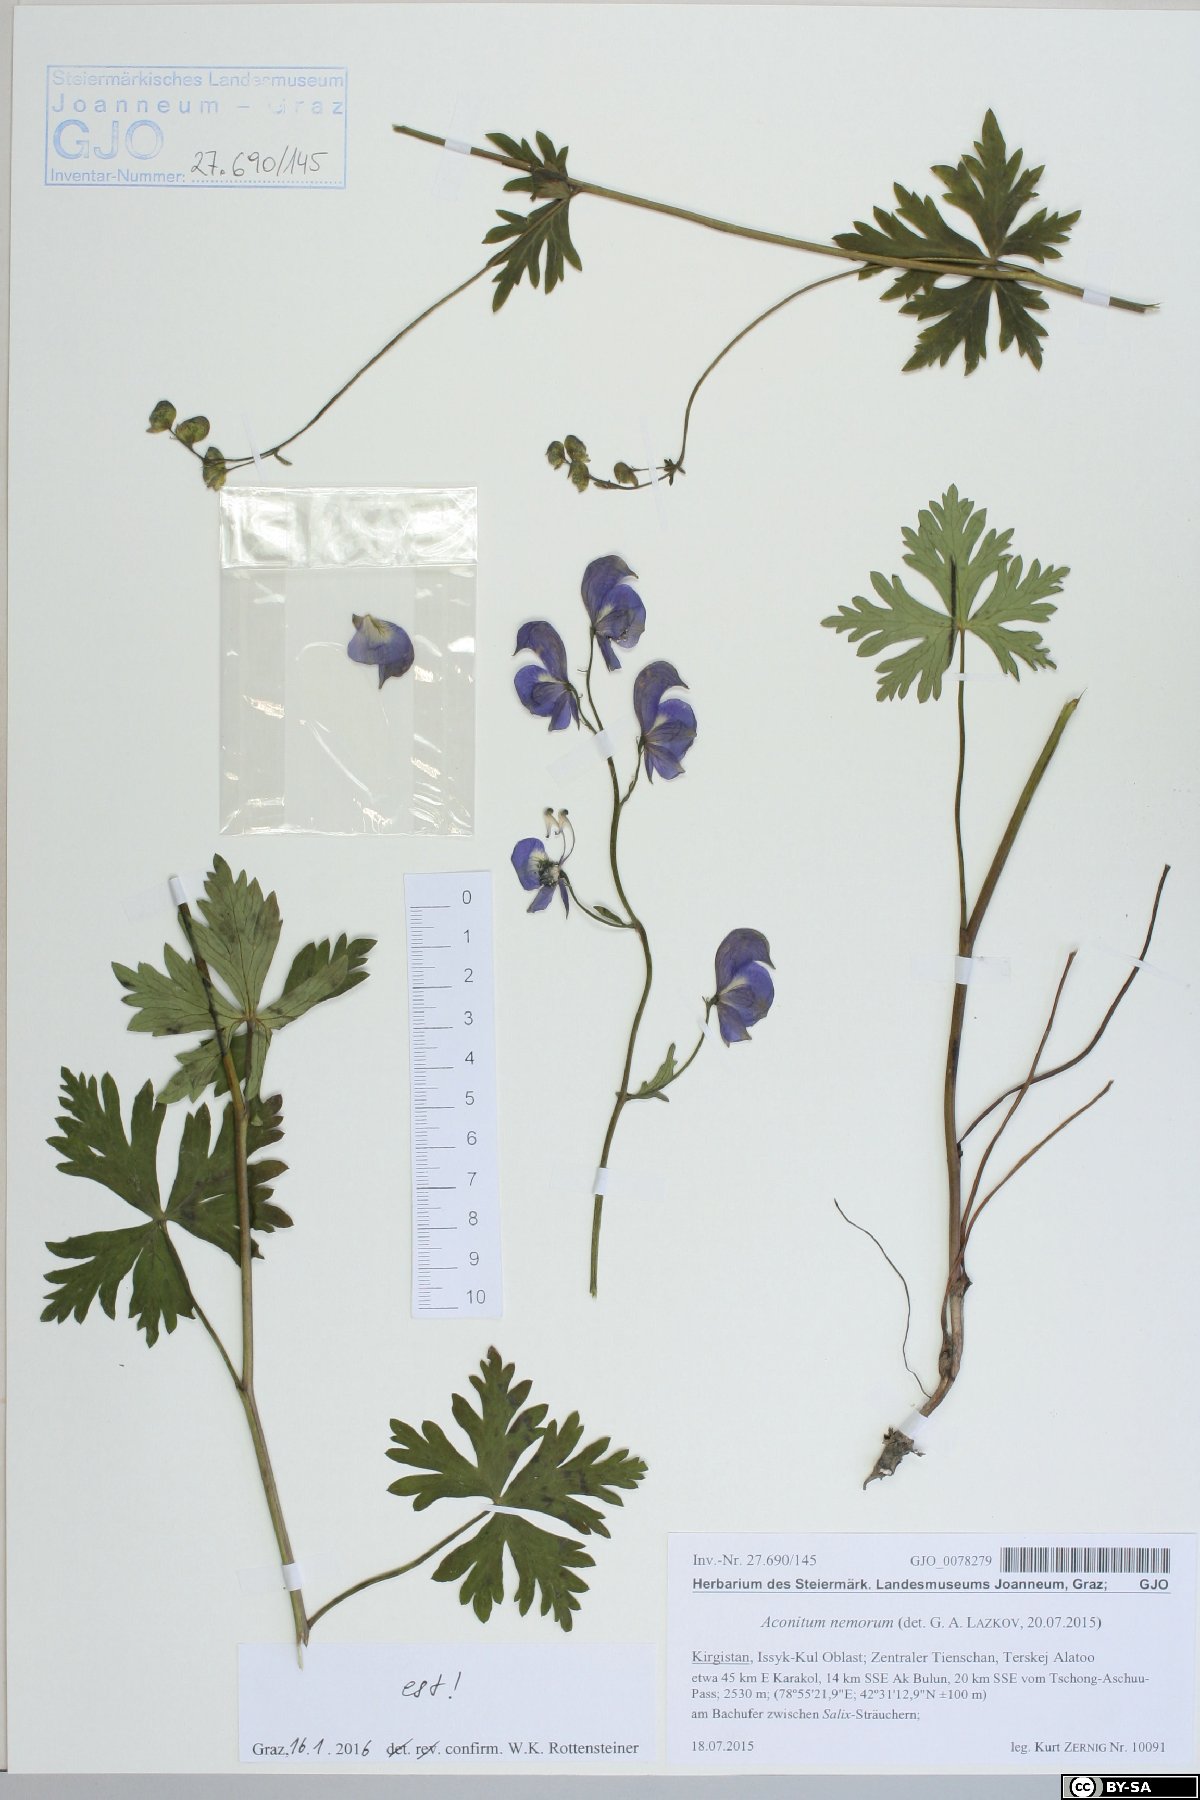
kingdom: Plantae
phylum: Tracheophyta
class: Magnoliopsida
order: Ranunculales
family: Ranunculaceae
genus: Aconitum
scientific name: Aconitum nemorum
